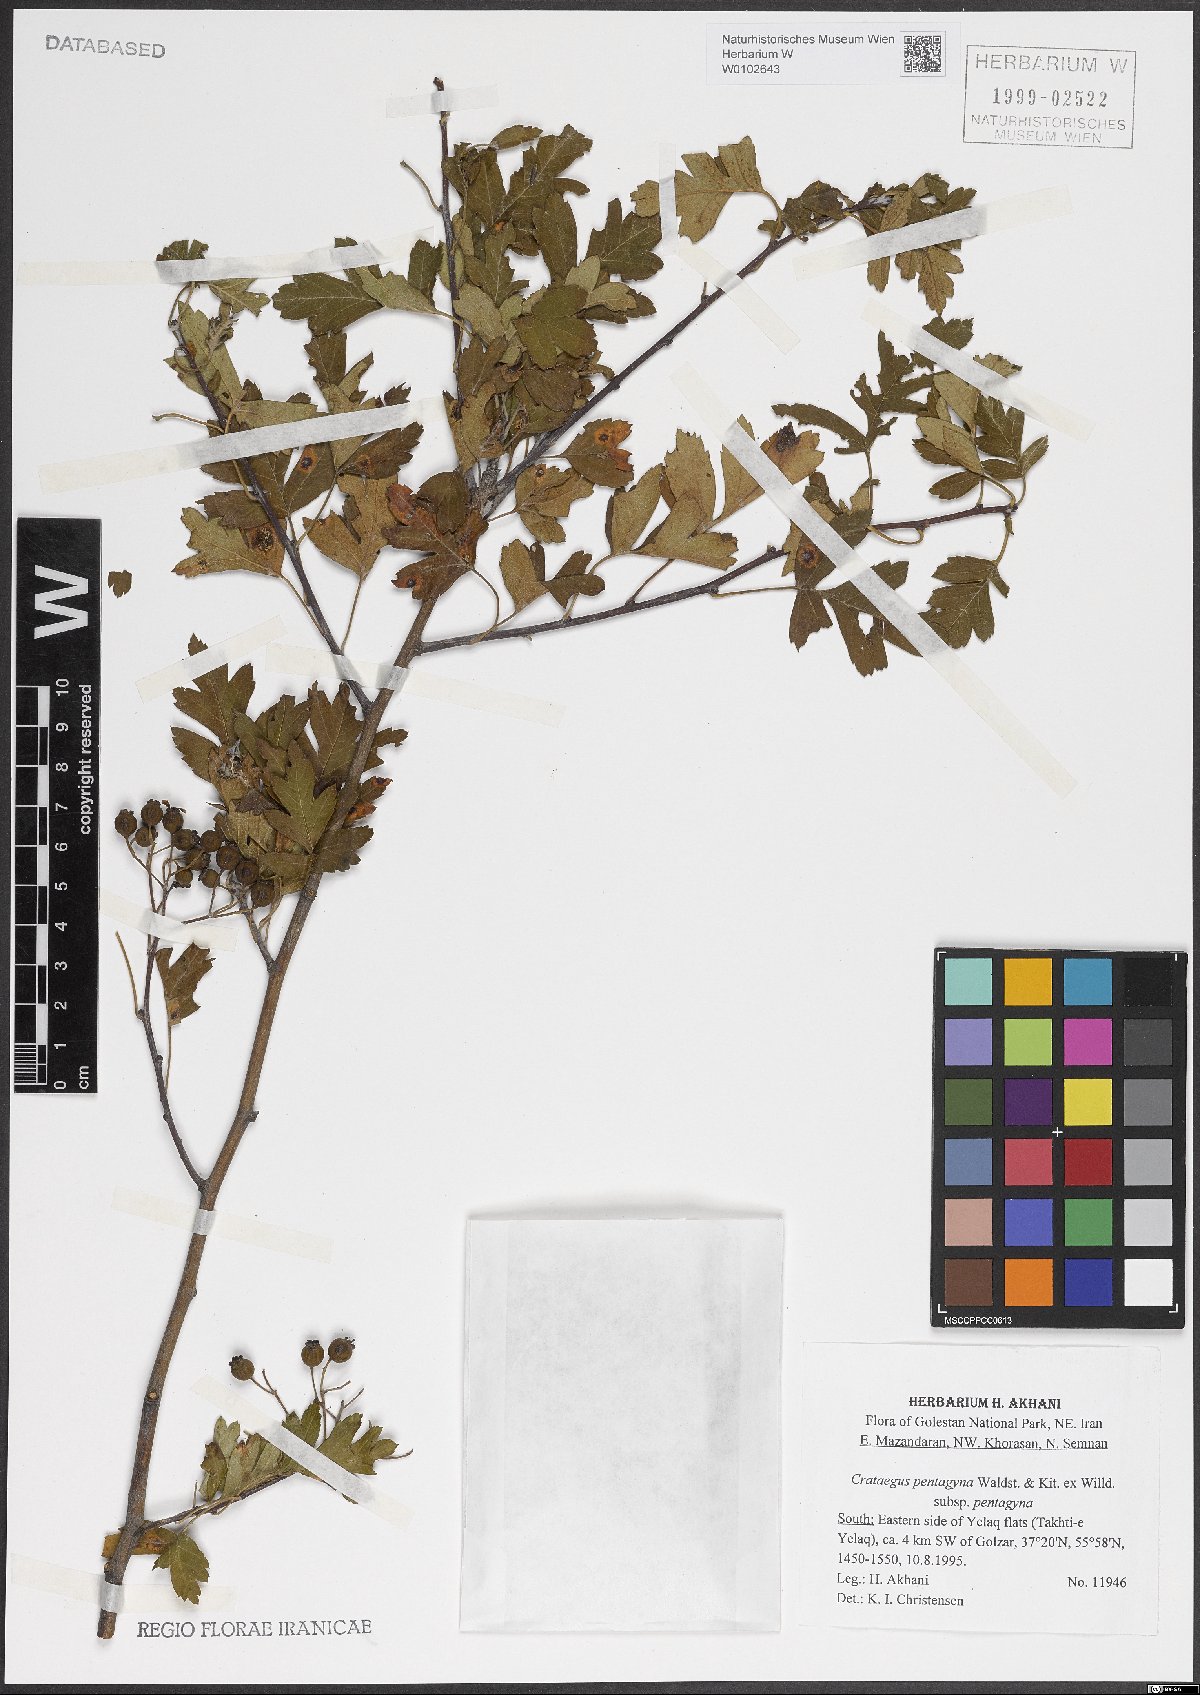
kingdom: Plantae
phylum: Tracheophyta
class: Magnoliopsida
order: Rosales
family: Rosaceae
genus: Crataegus
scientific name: Crataegus pentagyna
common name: Small-flowered black hawthorn
